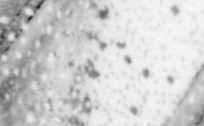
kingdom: Animalia
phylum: Chordata
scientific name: Chordata
